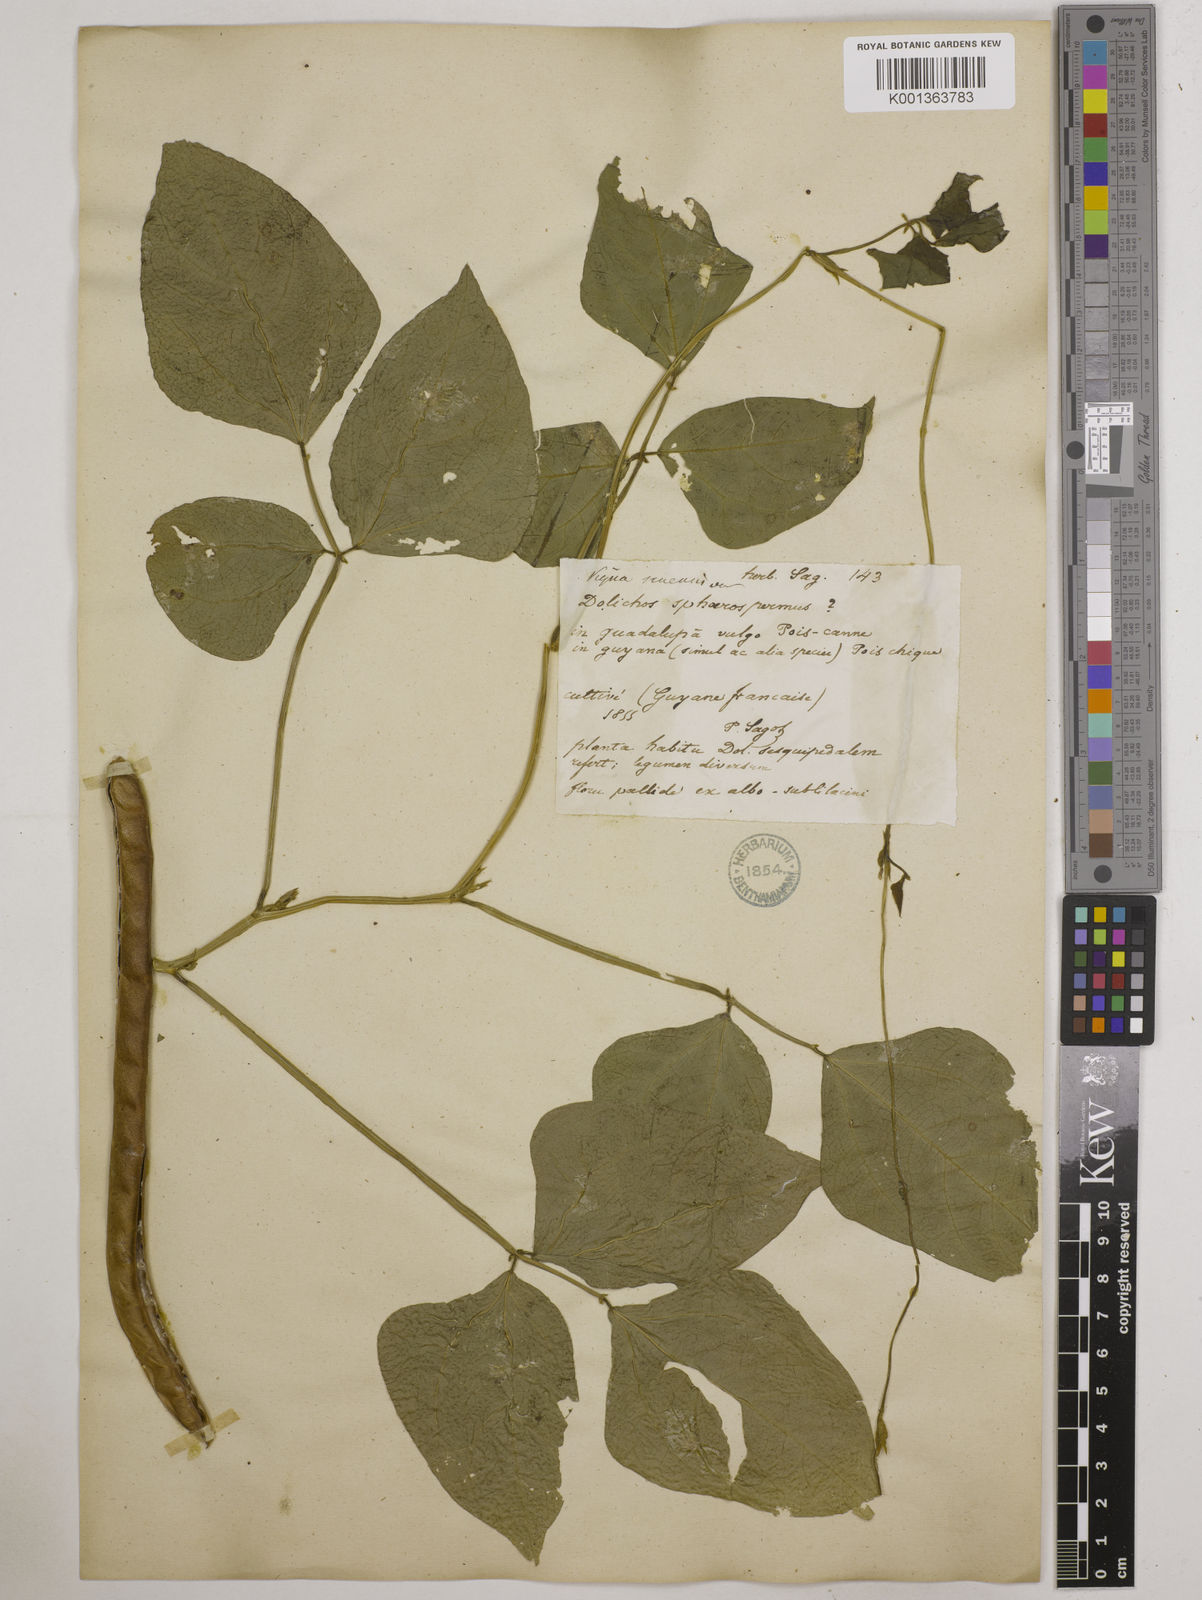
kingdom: Plantae
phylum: Tracheophyta
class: Magnoliopsida
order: Fabales
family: Fabaceae
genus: Vigna
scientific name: Vigna unguiculata
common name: Cowpea
